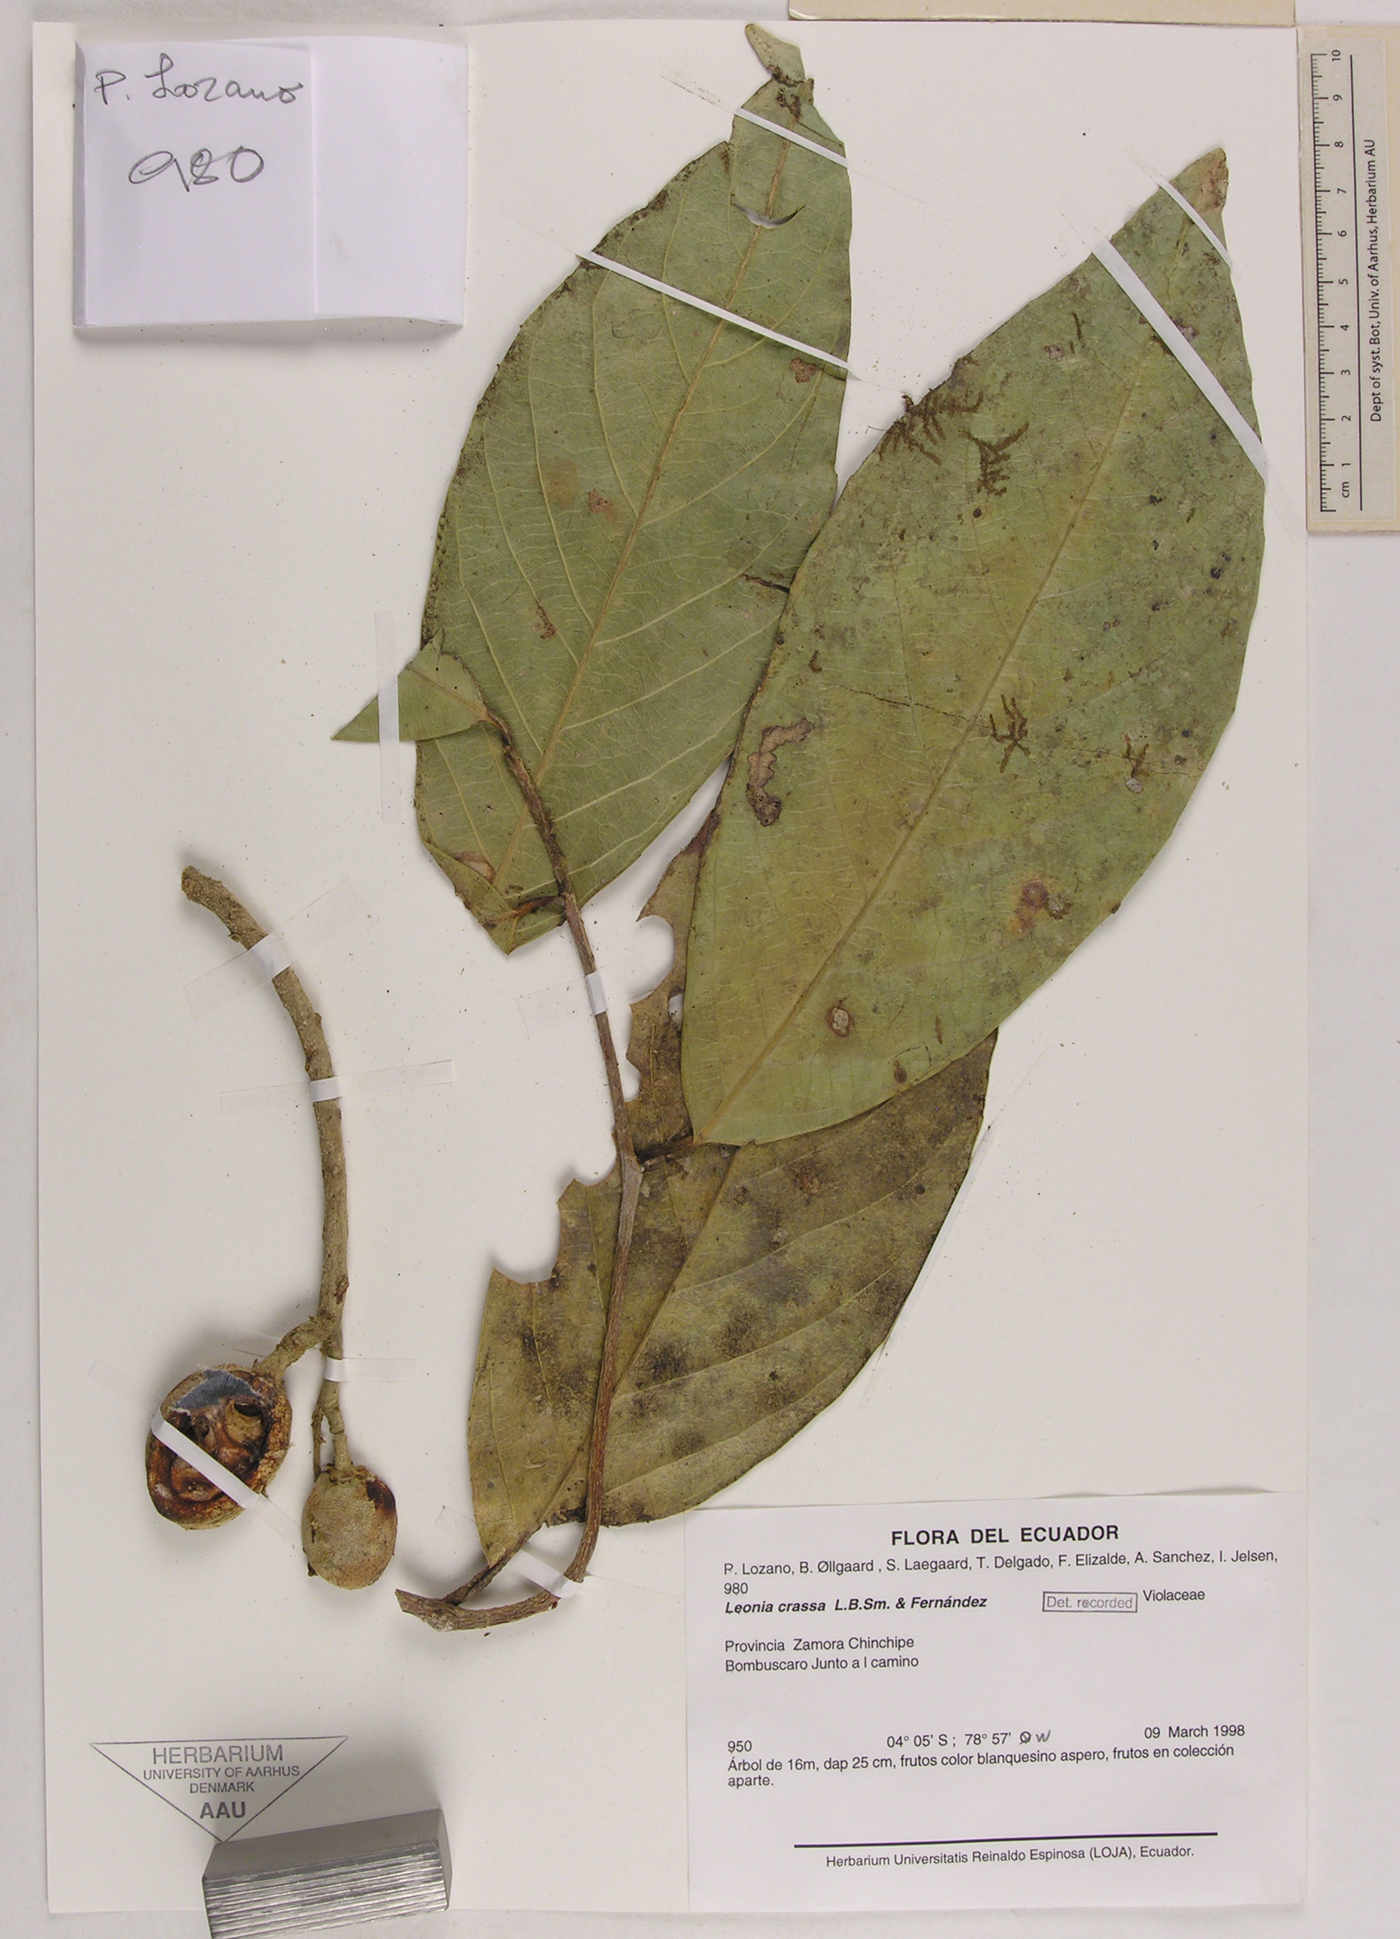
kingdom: Plantae
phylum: Tracheophyta
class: Magnoliopsida
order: Malpighiales
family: Violaceae
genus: Leonia
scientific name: Leonia crassa
